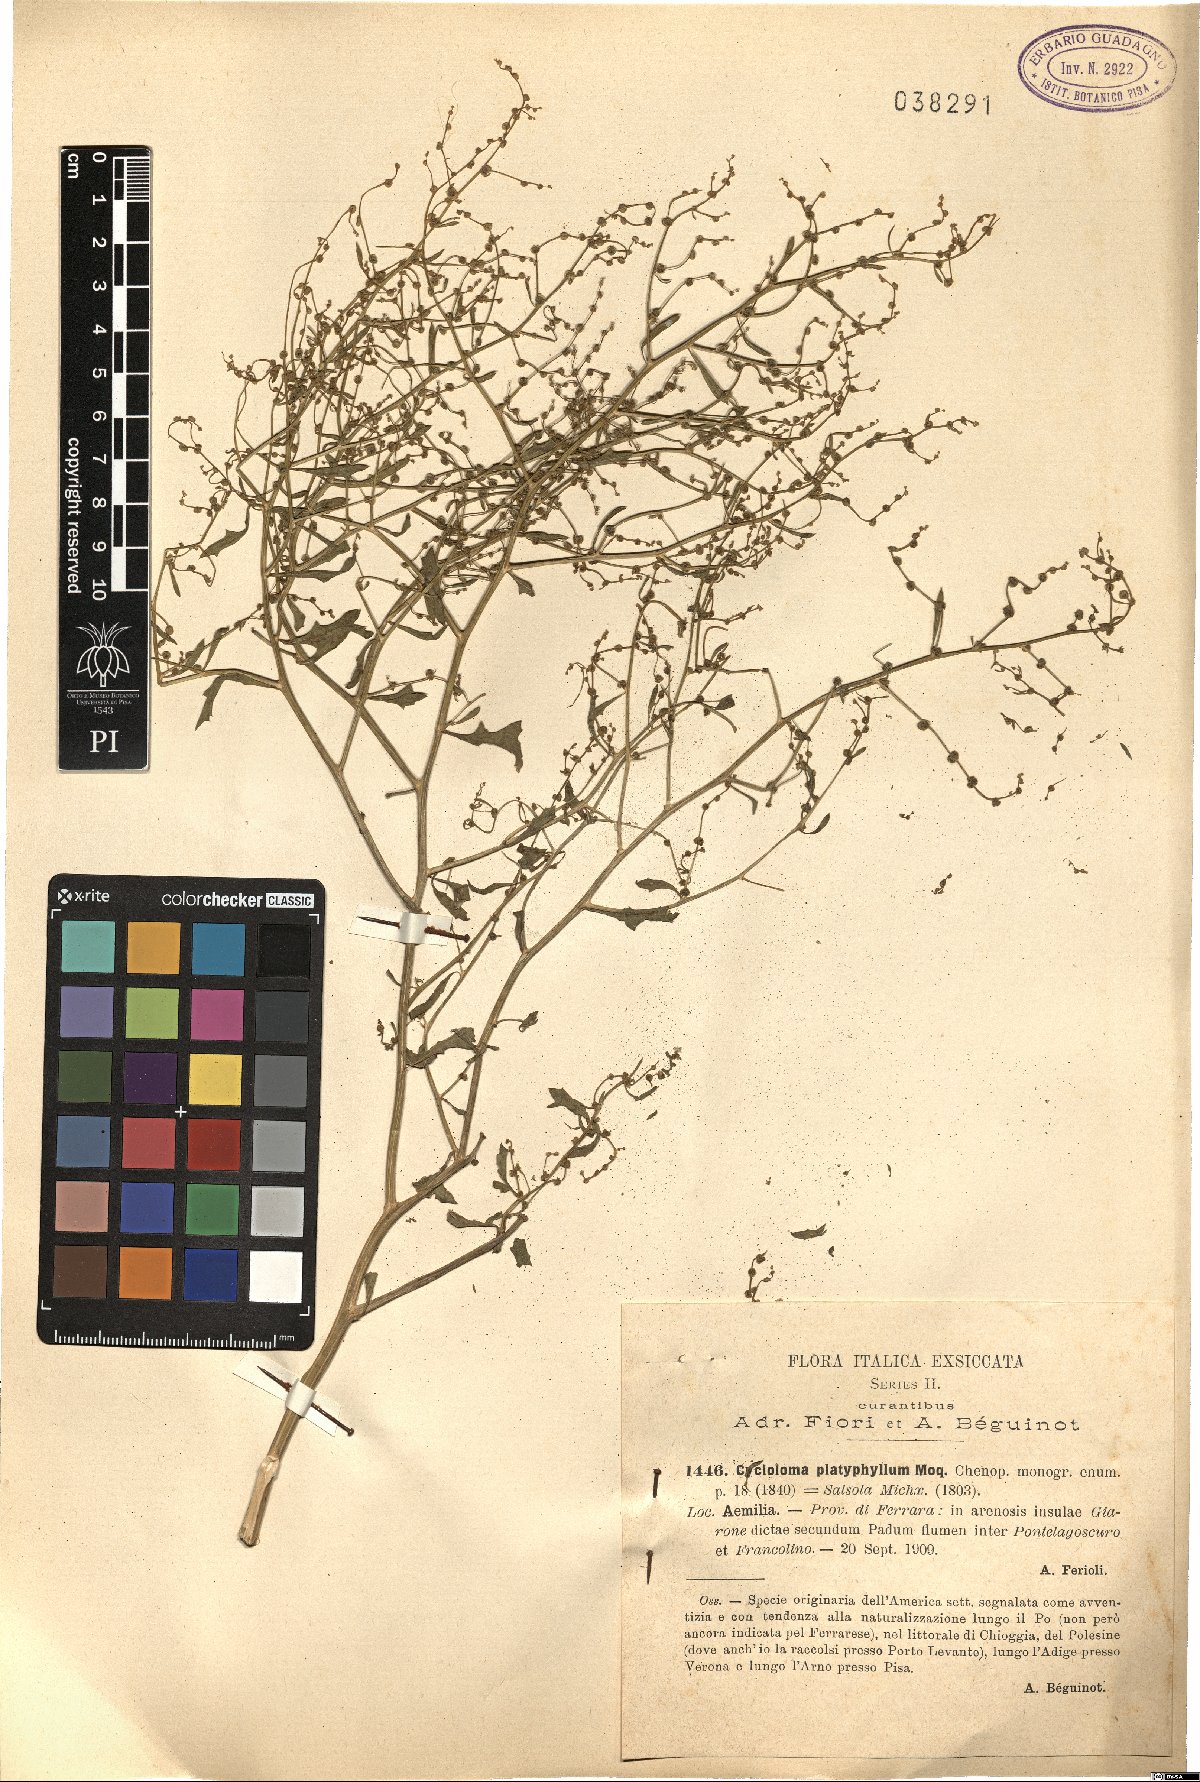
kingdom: Plantae
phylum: Tracheophyta
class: Magnoliopsida
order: Caryophyllales
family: Amaranthaceae
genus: Dysphania
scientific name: Dysphania atriplicifolia
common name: Plains tumbleweed
